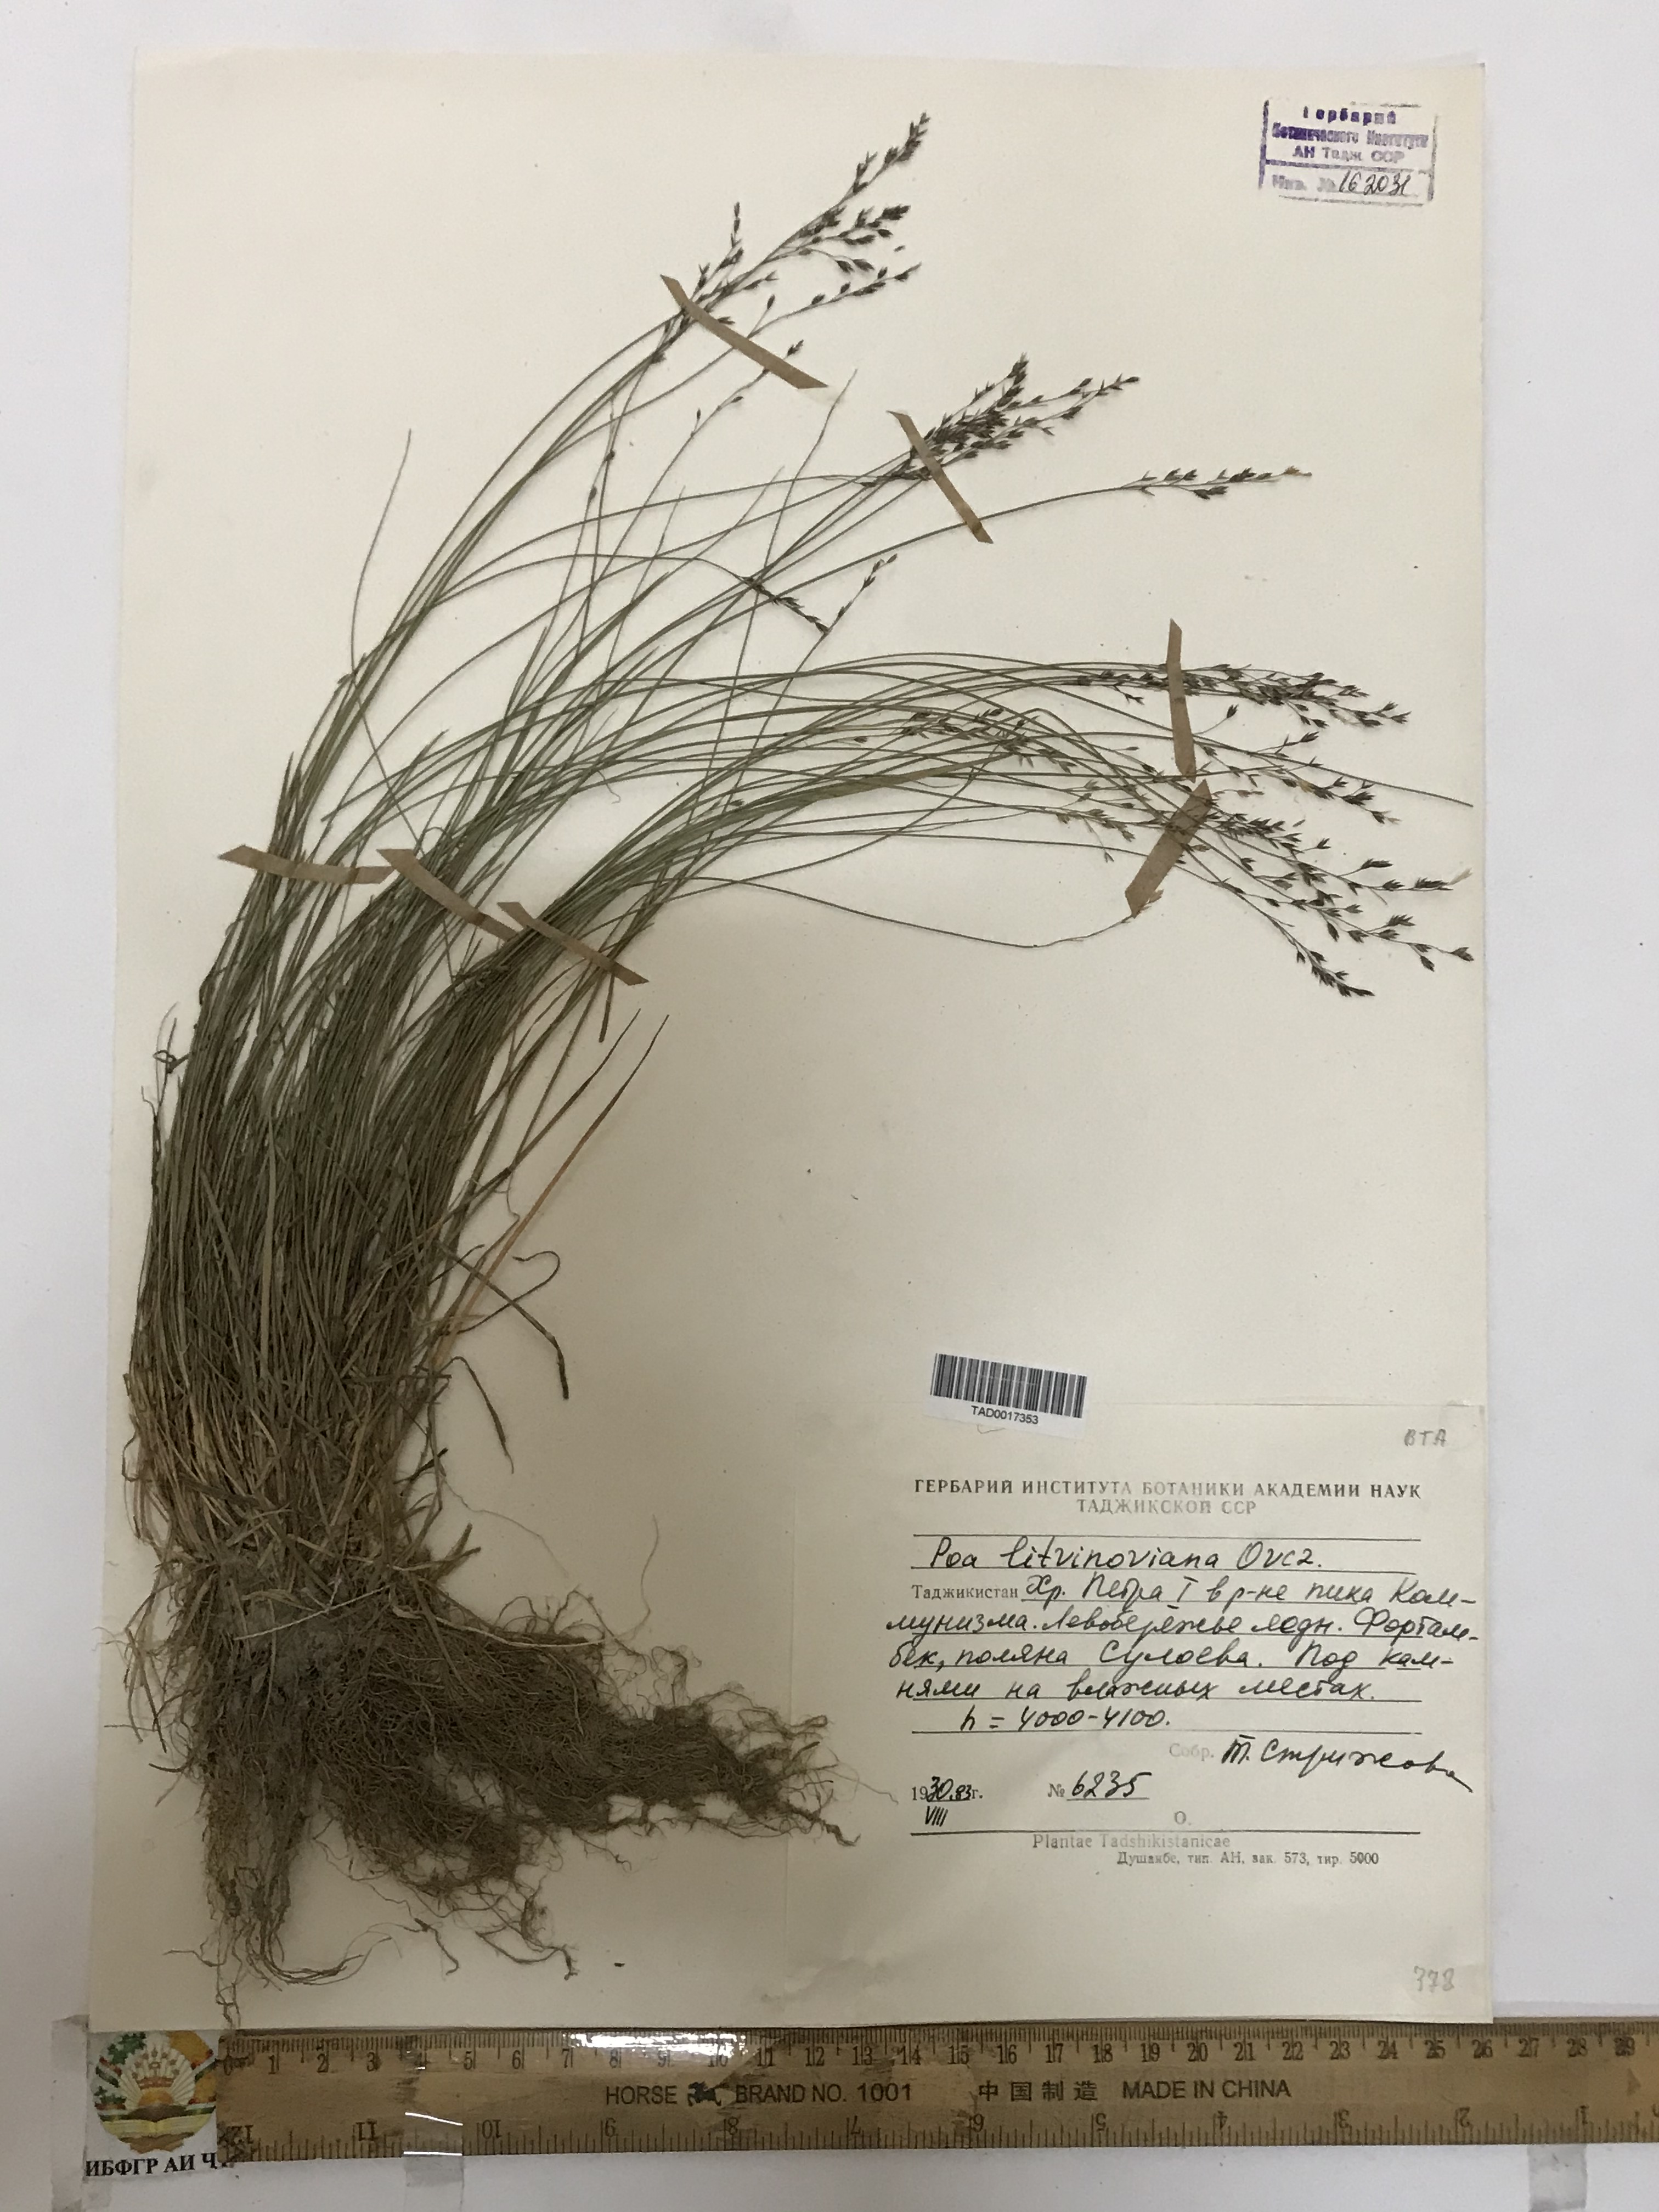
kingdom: Plantae
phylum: Tracheophyta
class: Liliopsida
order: Poales
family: Poaceae
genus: Poa
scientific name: Poa glauca
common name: Glaucous bluegrass
